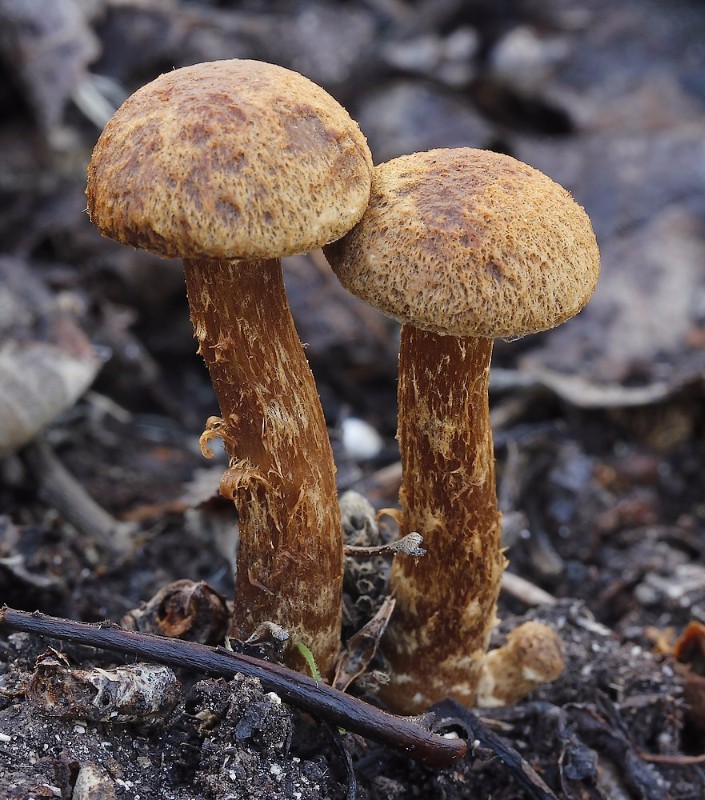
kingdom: Fungi
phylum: Basidiomycota
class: Agaricomycetes
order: Agaricales
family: Inocybaceae
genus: Mallocybe
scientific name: Mallocybe plebeia
